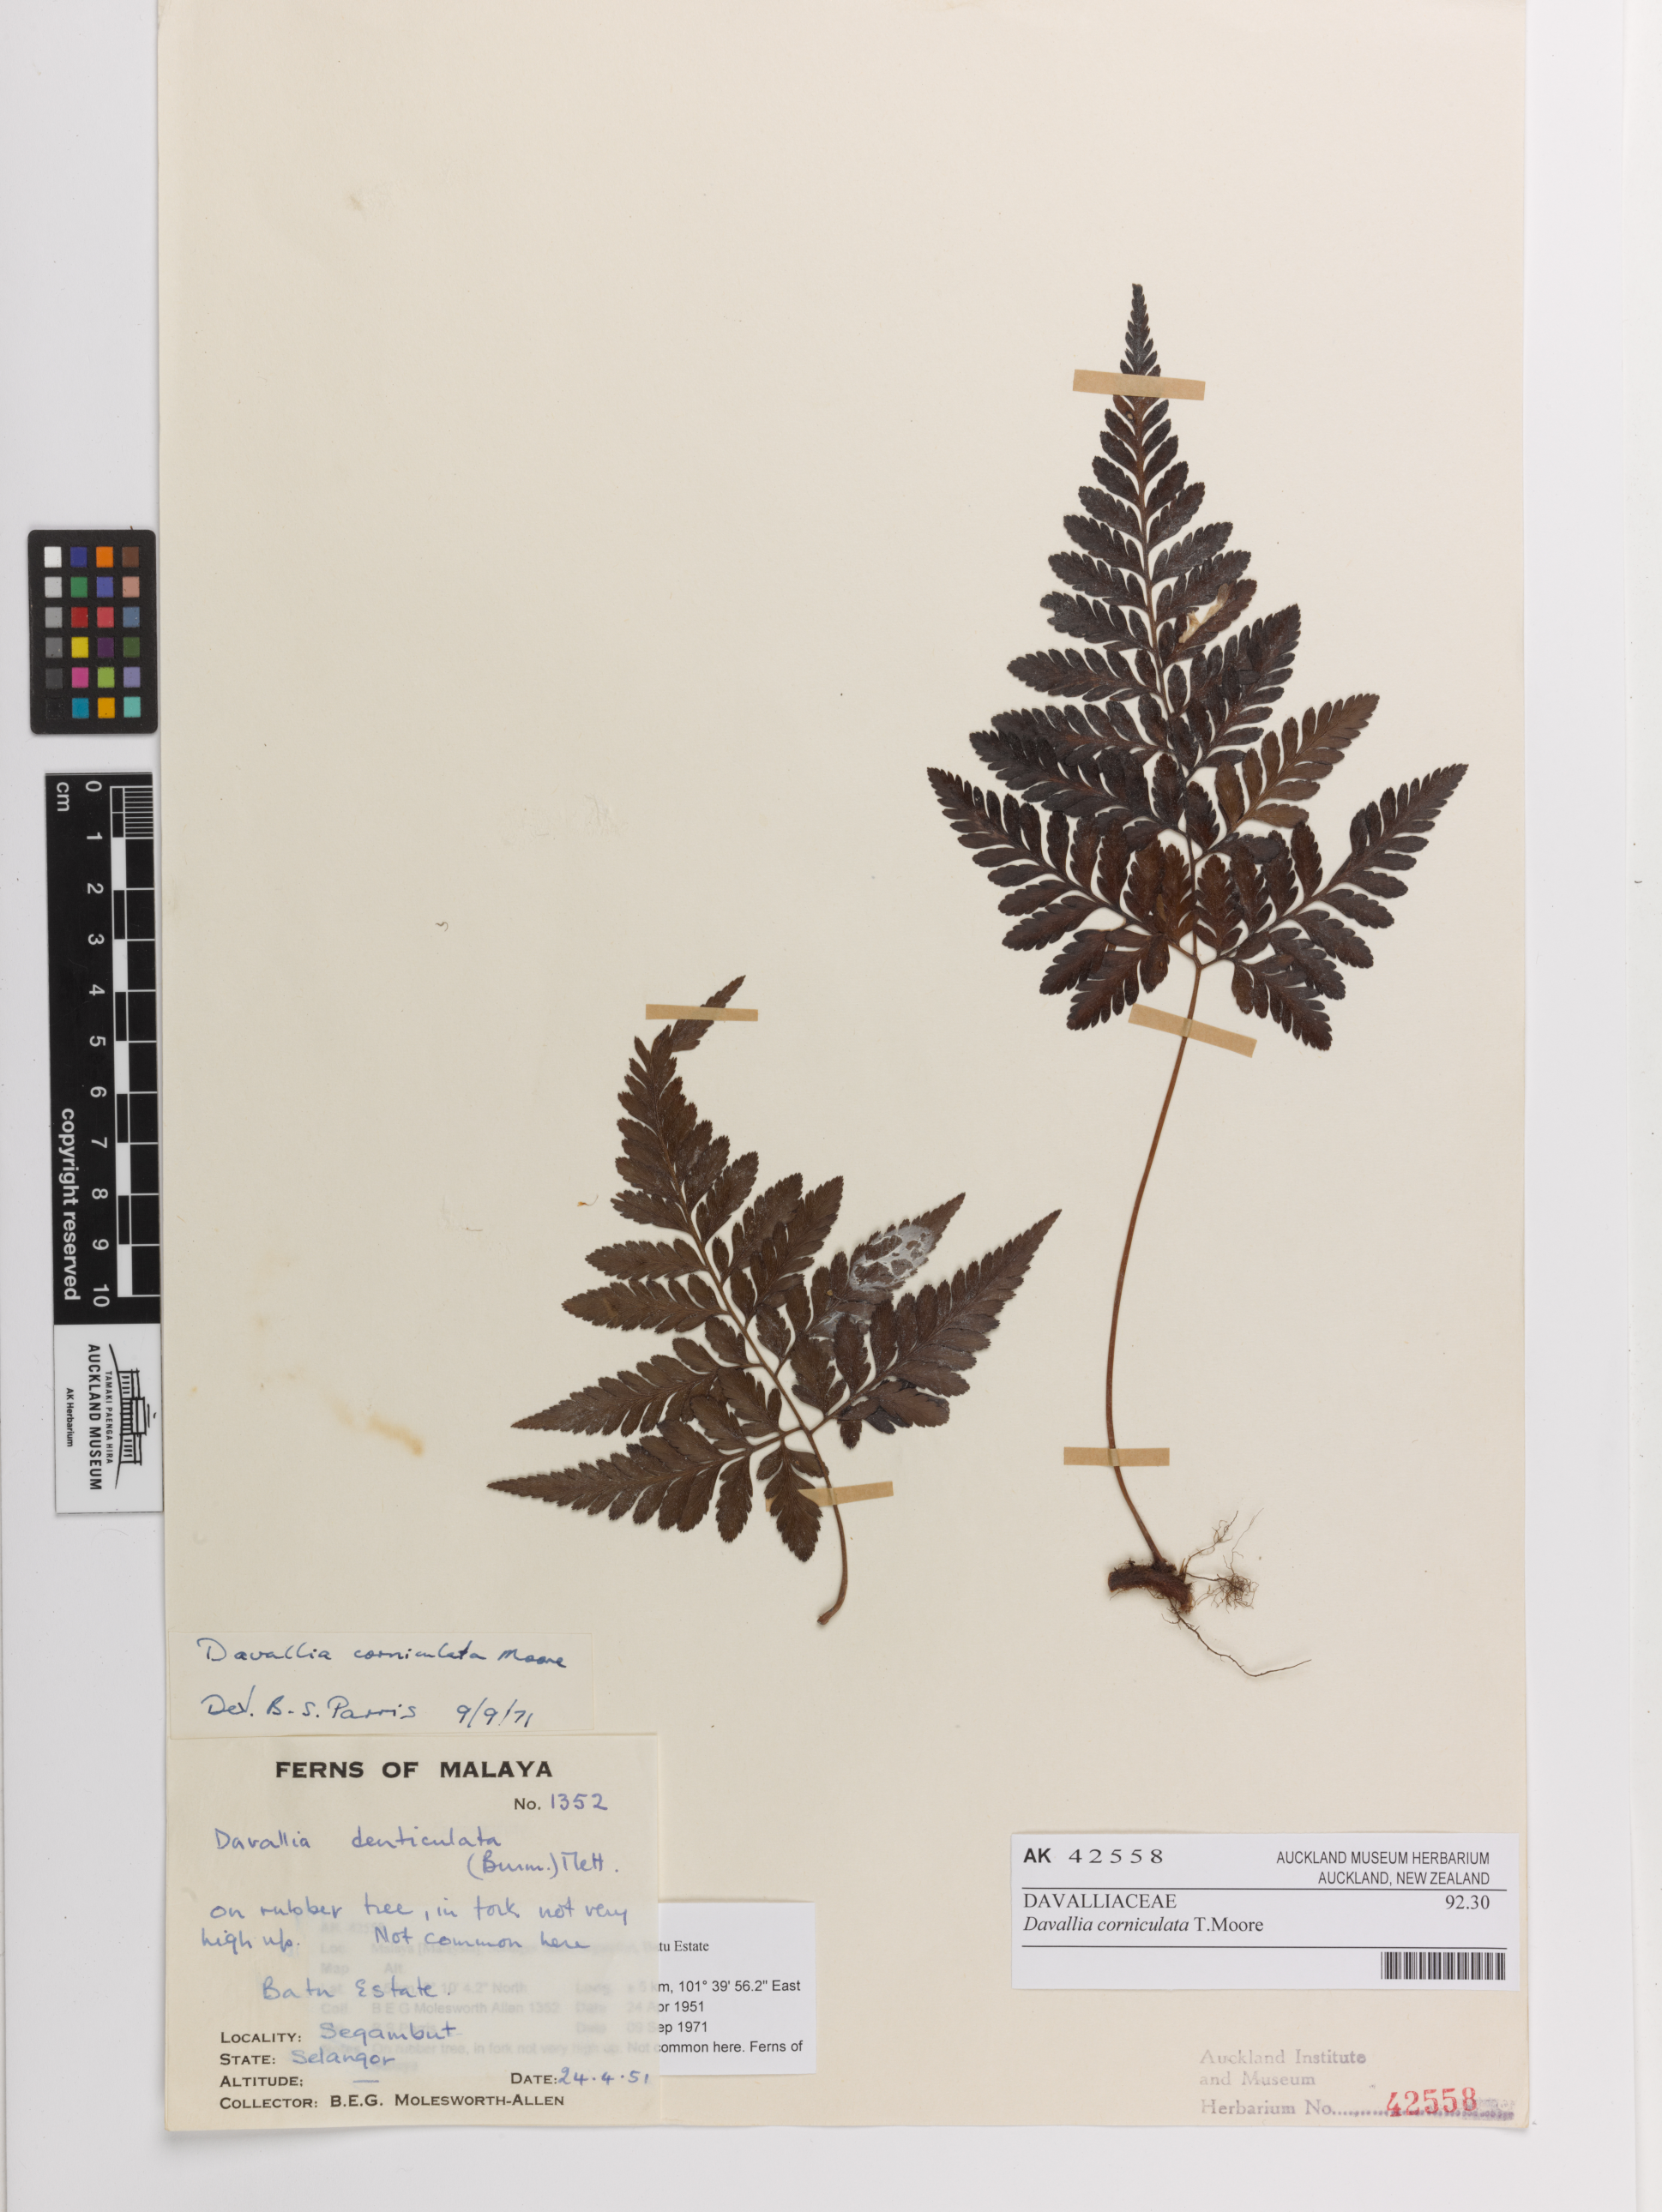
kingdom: Plantae
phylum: Tracheophyta
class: Polypodiopsida
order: Polypodiales
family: Davalliaceae
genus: Davallia
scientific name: Davallia corniculata
